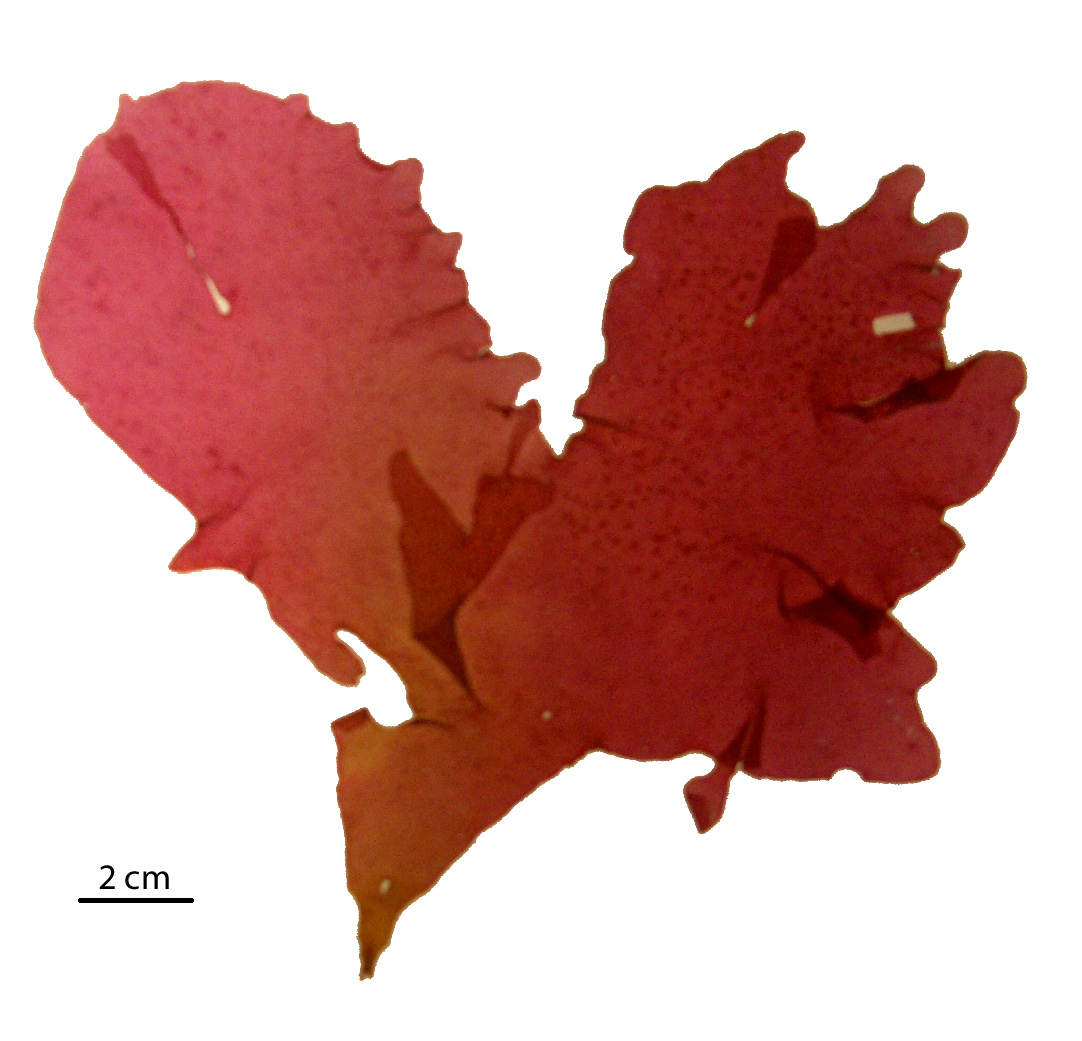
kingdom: Plantae
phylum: Rhodophyta
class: Florideophyceae
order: Gigartinales
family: Kallymeniaceae
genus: Psaromenia
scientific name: Psaromenia berggrenii
